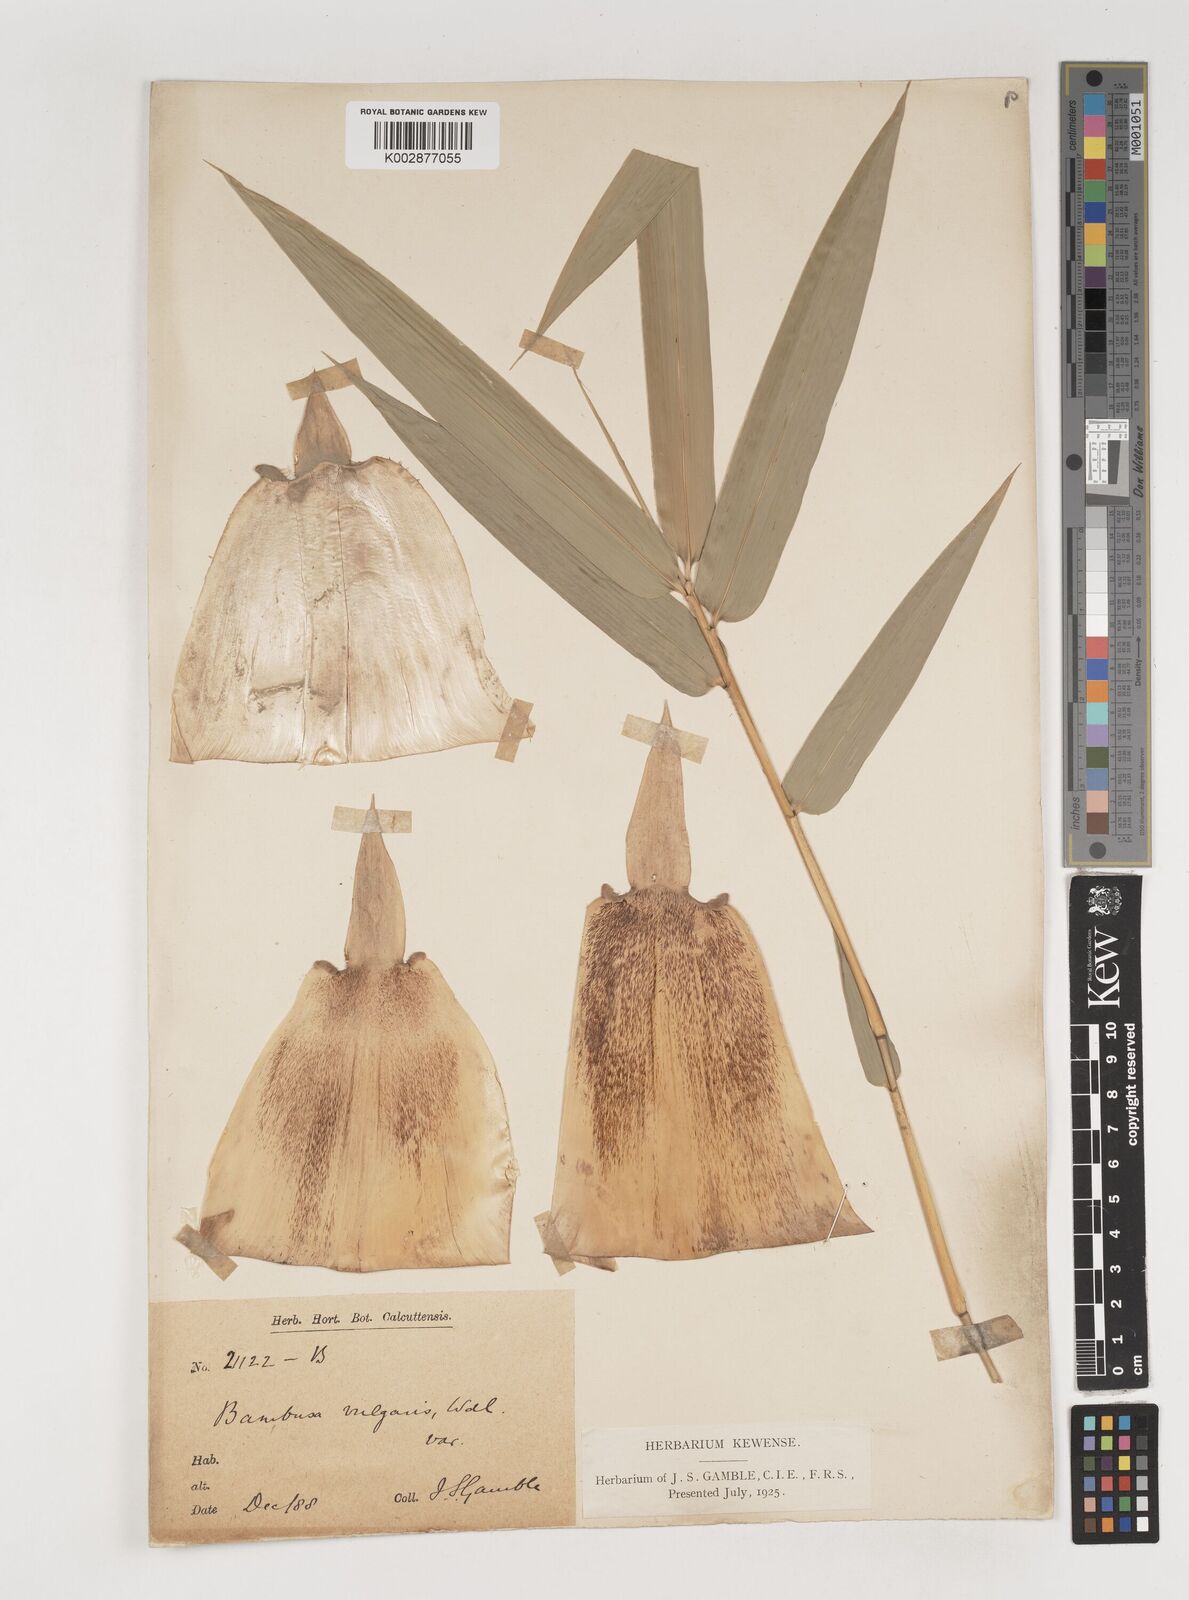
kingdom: Plantae
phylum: Tracheophyta
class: Liliopsida
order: Poales
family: Poaceae
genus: Bambusa
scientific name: Bambusa vulgaris
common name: Common bamboo
